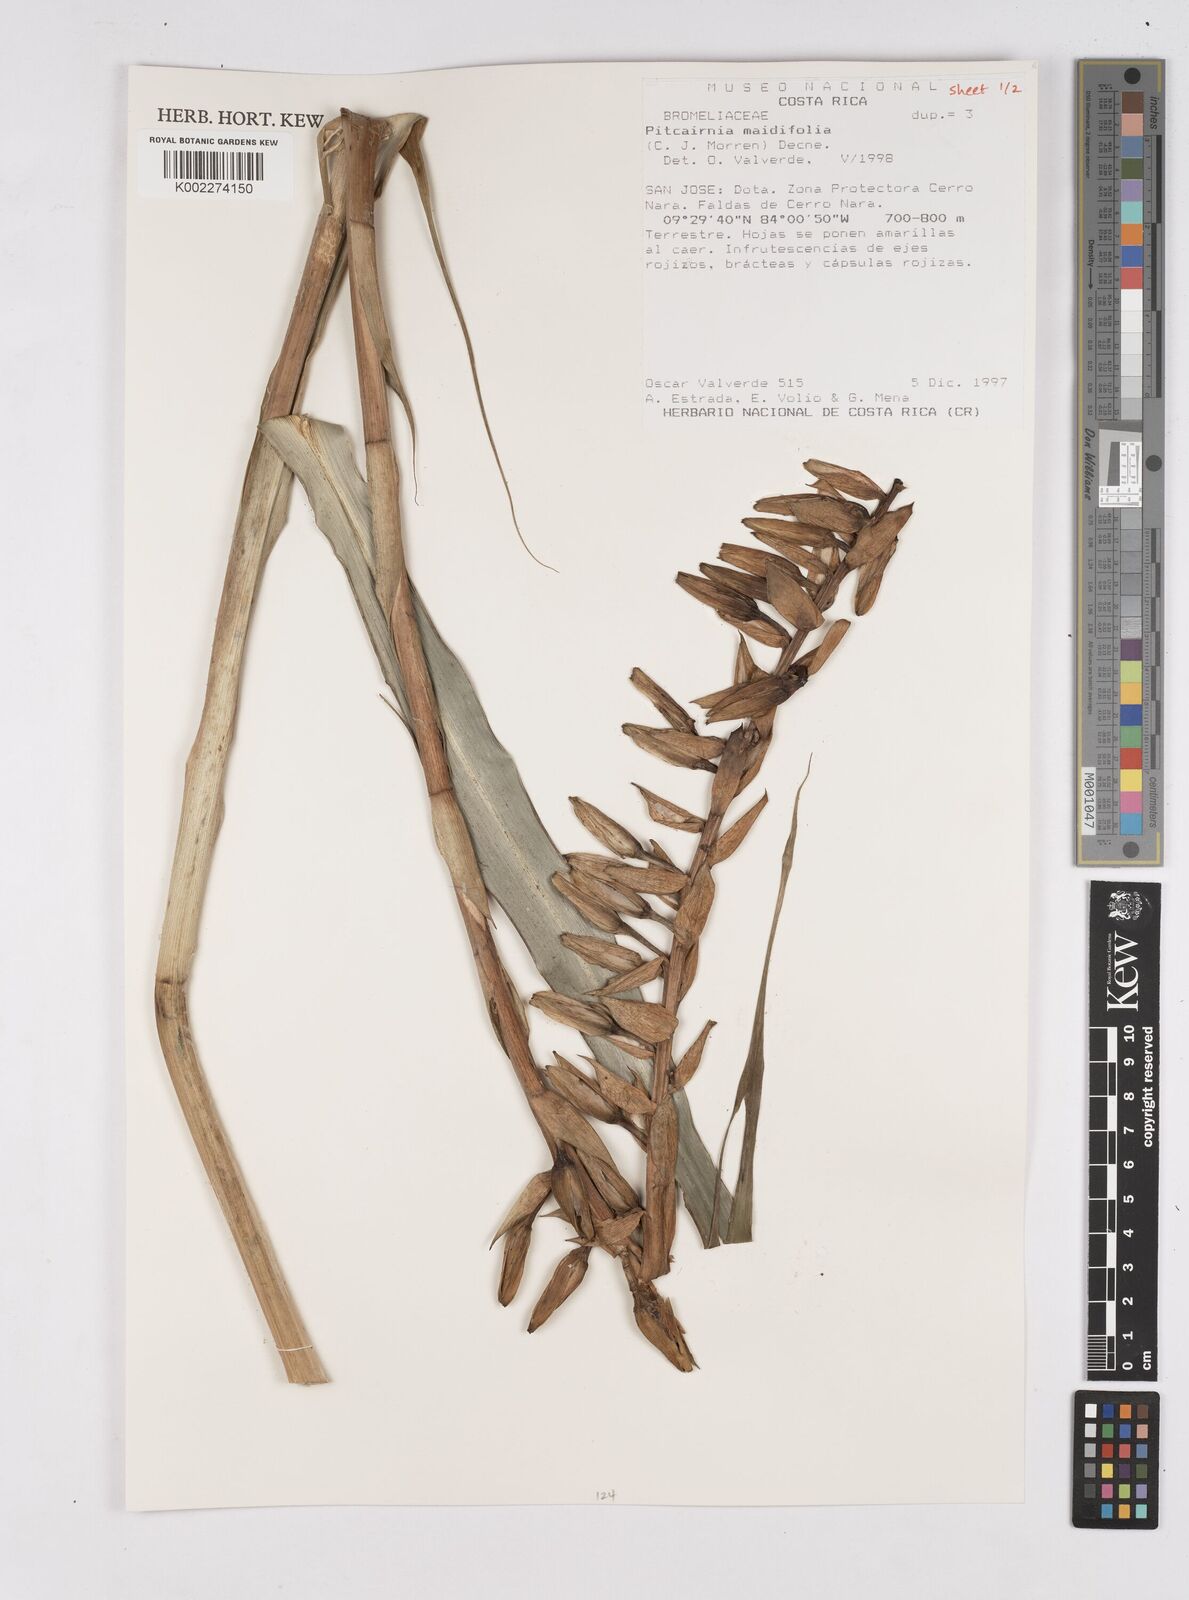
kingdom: Plantae
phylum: Tracheophyta
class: Liliopsida
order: Poales
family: Bromeliaceae
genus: Pitcairnia
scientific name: Pitcairnia maidifolia
